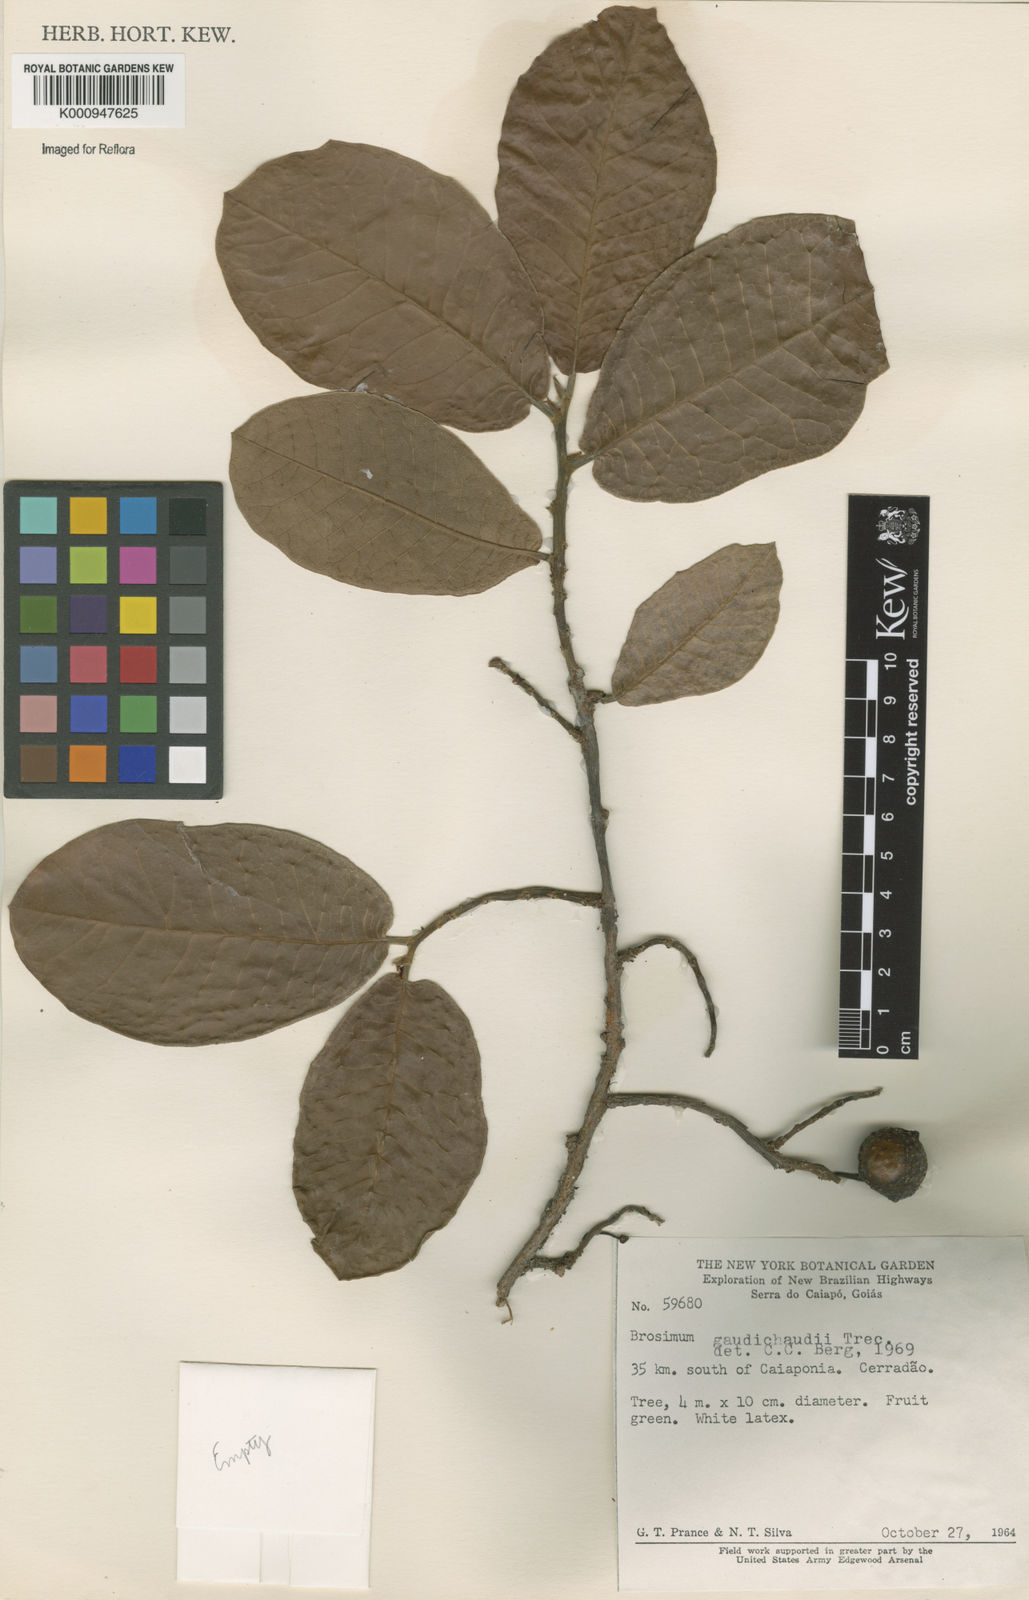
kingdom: Plantae
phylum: Tracheophyta
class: Magnoliopsida
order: Rosales
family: Moraceae
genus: Brosimum
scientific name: Brosimum
